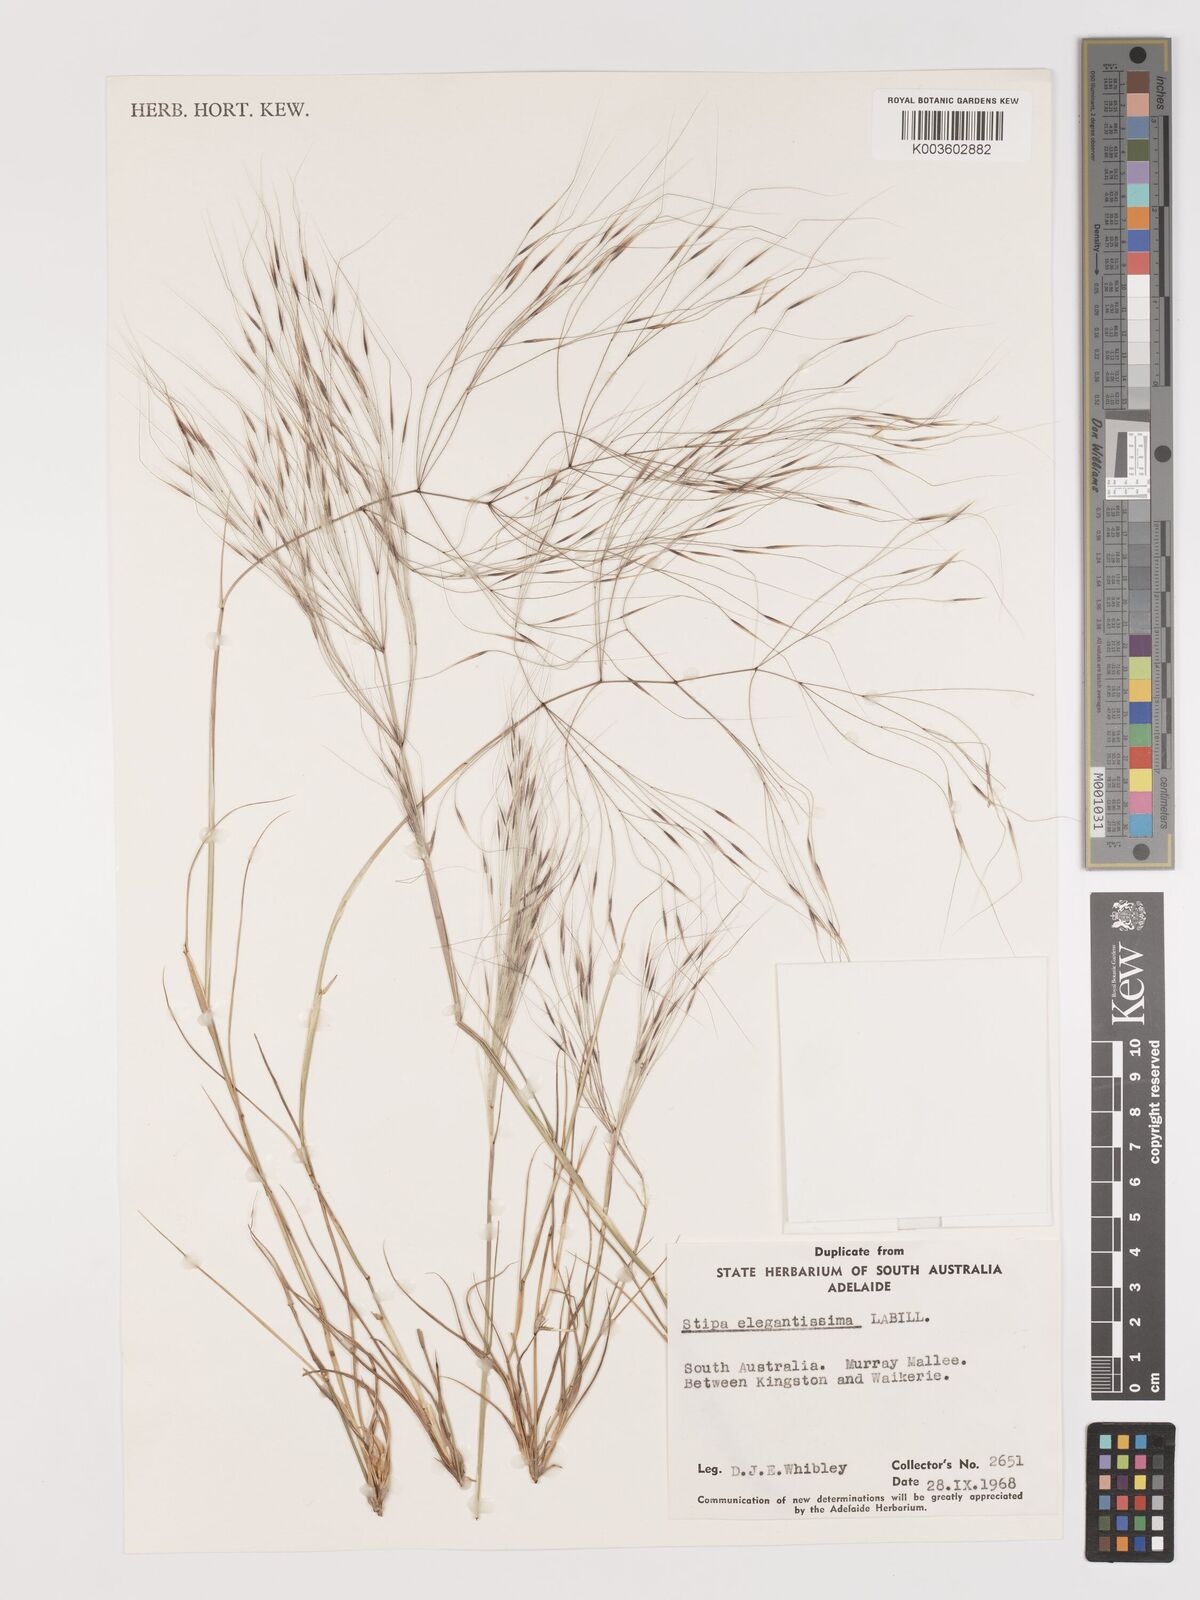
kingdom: Plantae
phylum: Tracheophyta
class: Liliopsida
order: Poales
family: Poaceae
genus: Austrostipa
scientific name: Austrostipa elegantissima
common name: Feather spear grass
